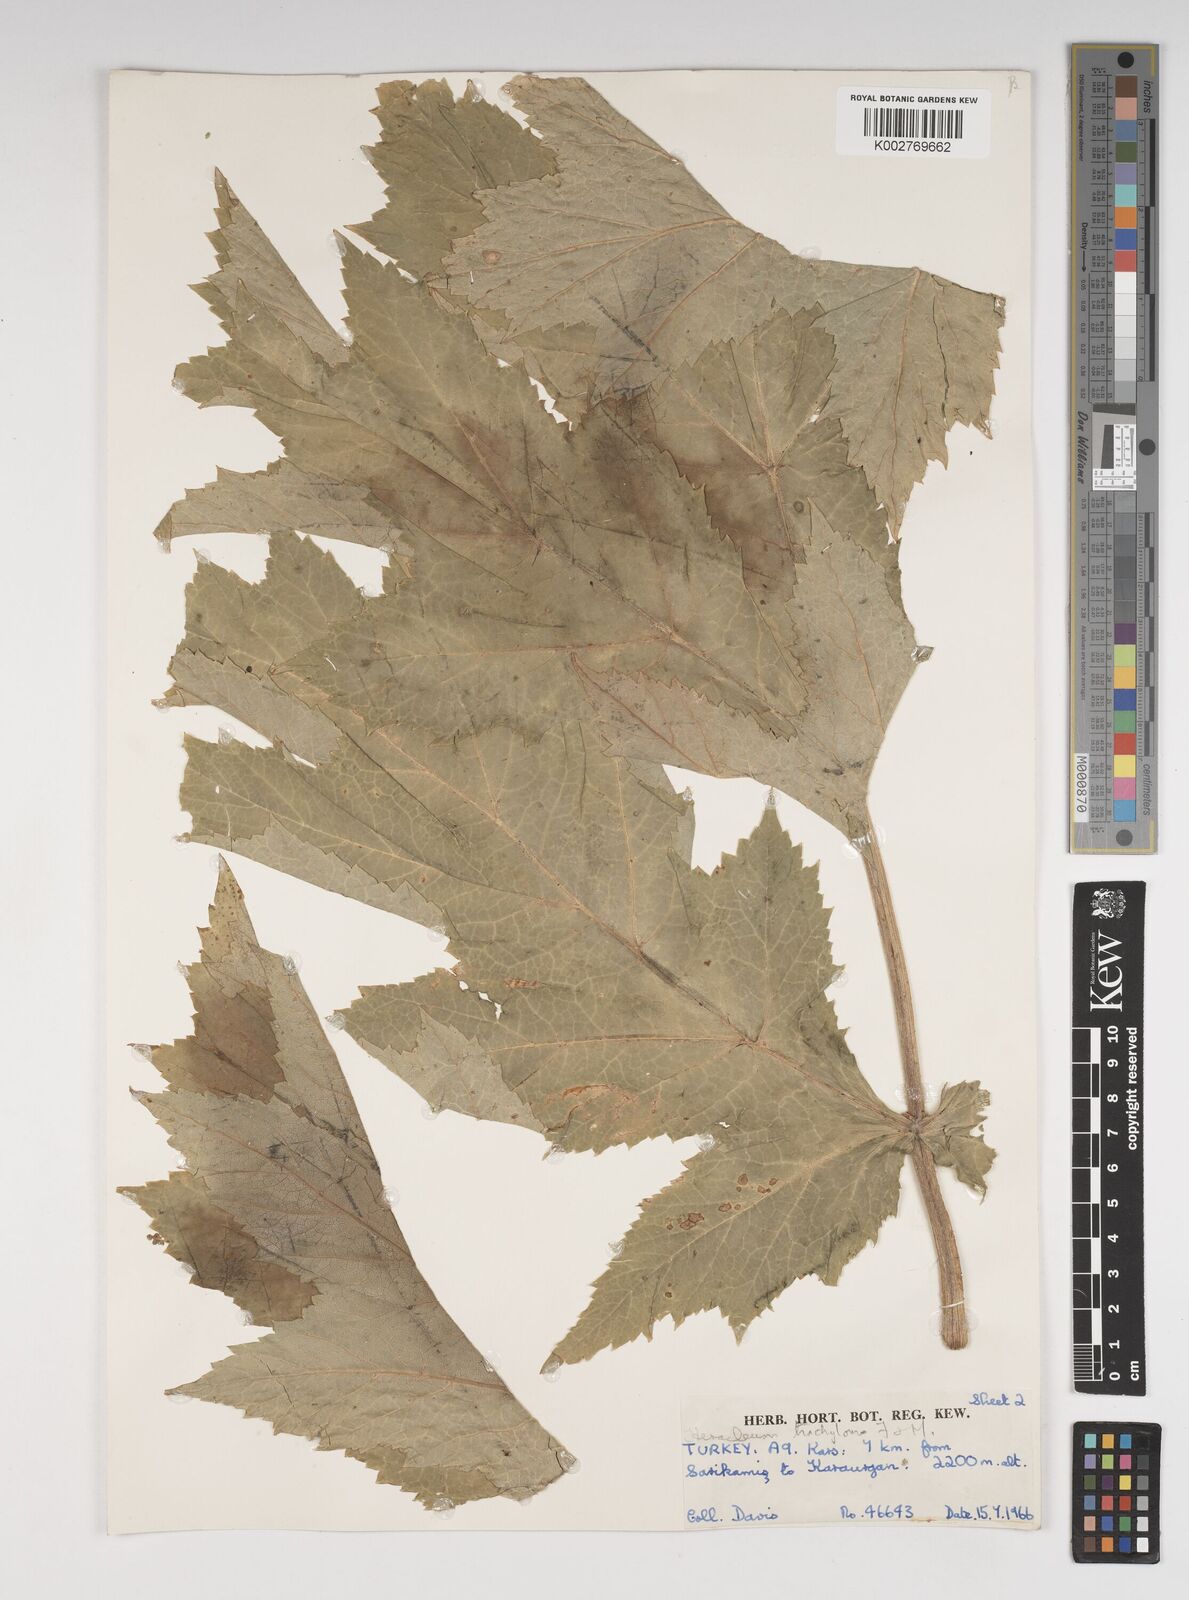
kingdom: Plantae
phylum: Tracheophyta
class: Magnoliopsida
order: Apiales
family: Apiaceae
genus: Heracleum
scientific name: Heracleum trachyloma
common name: Downy cow-parsnip
